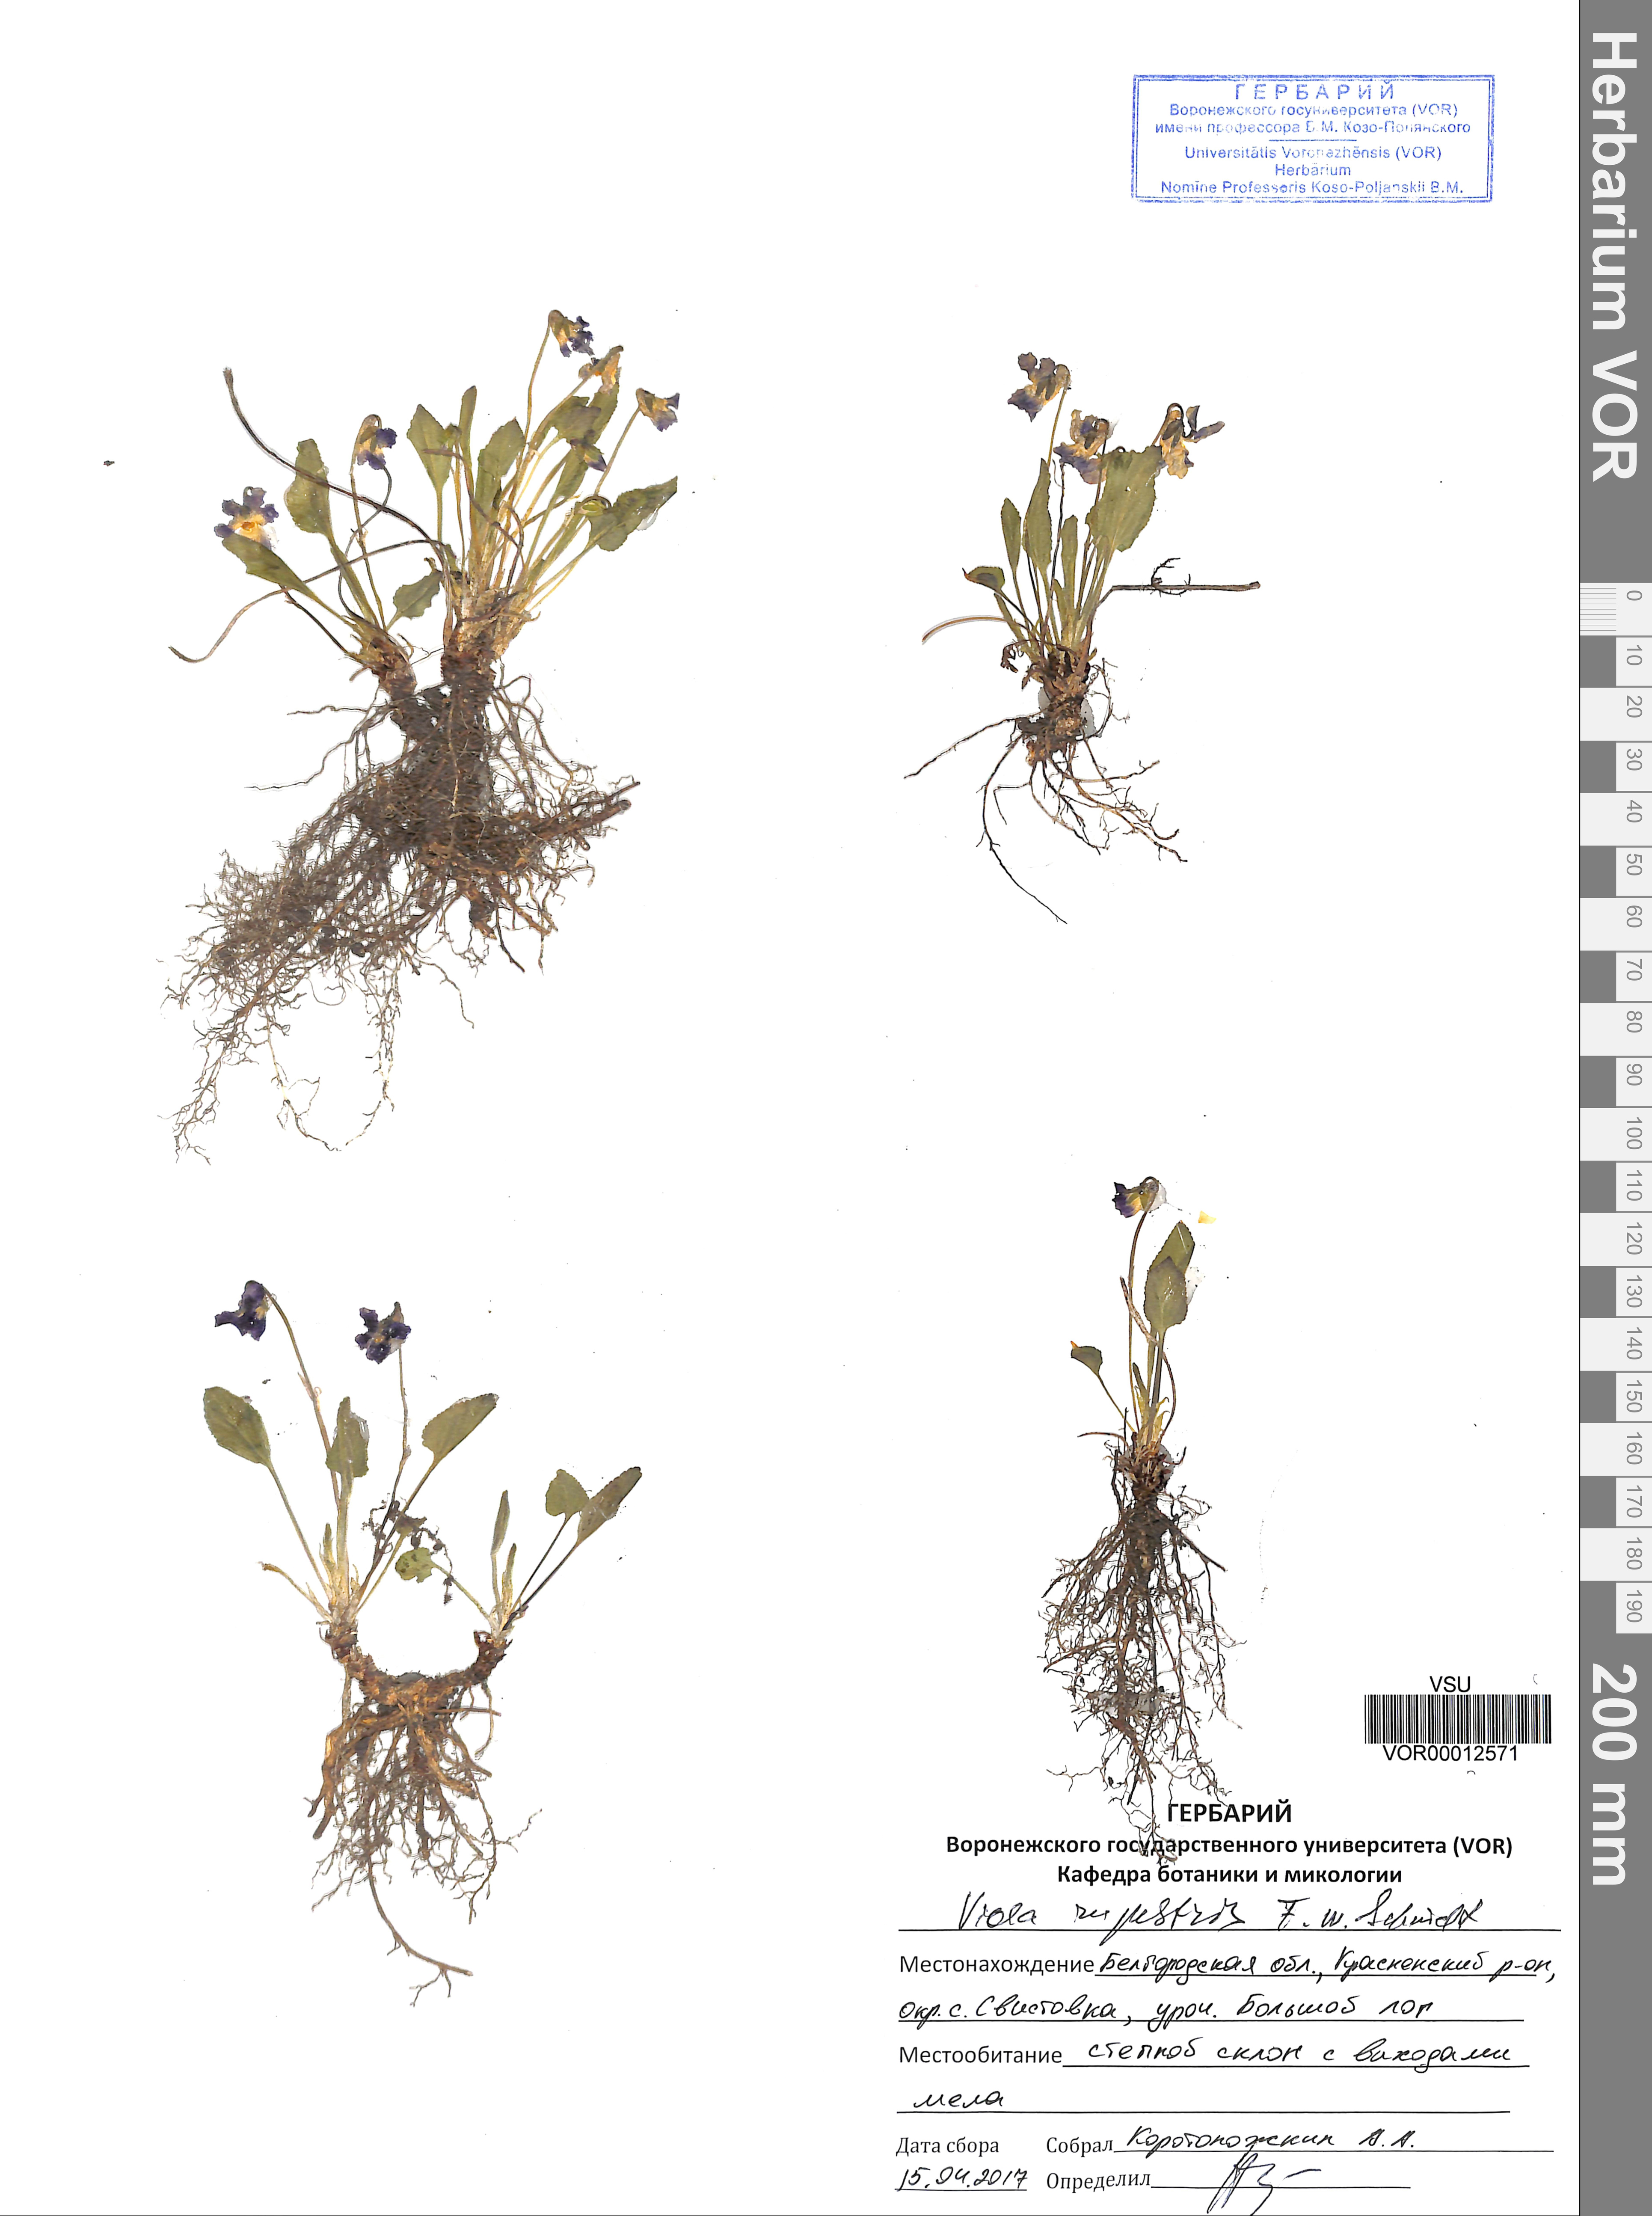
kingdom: Plantae
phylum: Tracheophyta
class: Magnoliopsida
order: Malpighiales
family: Violaceae
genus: Viola
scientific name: Viola rupestris
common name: Teesdale violet
